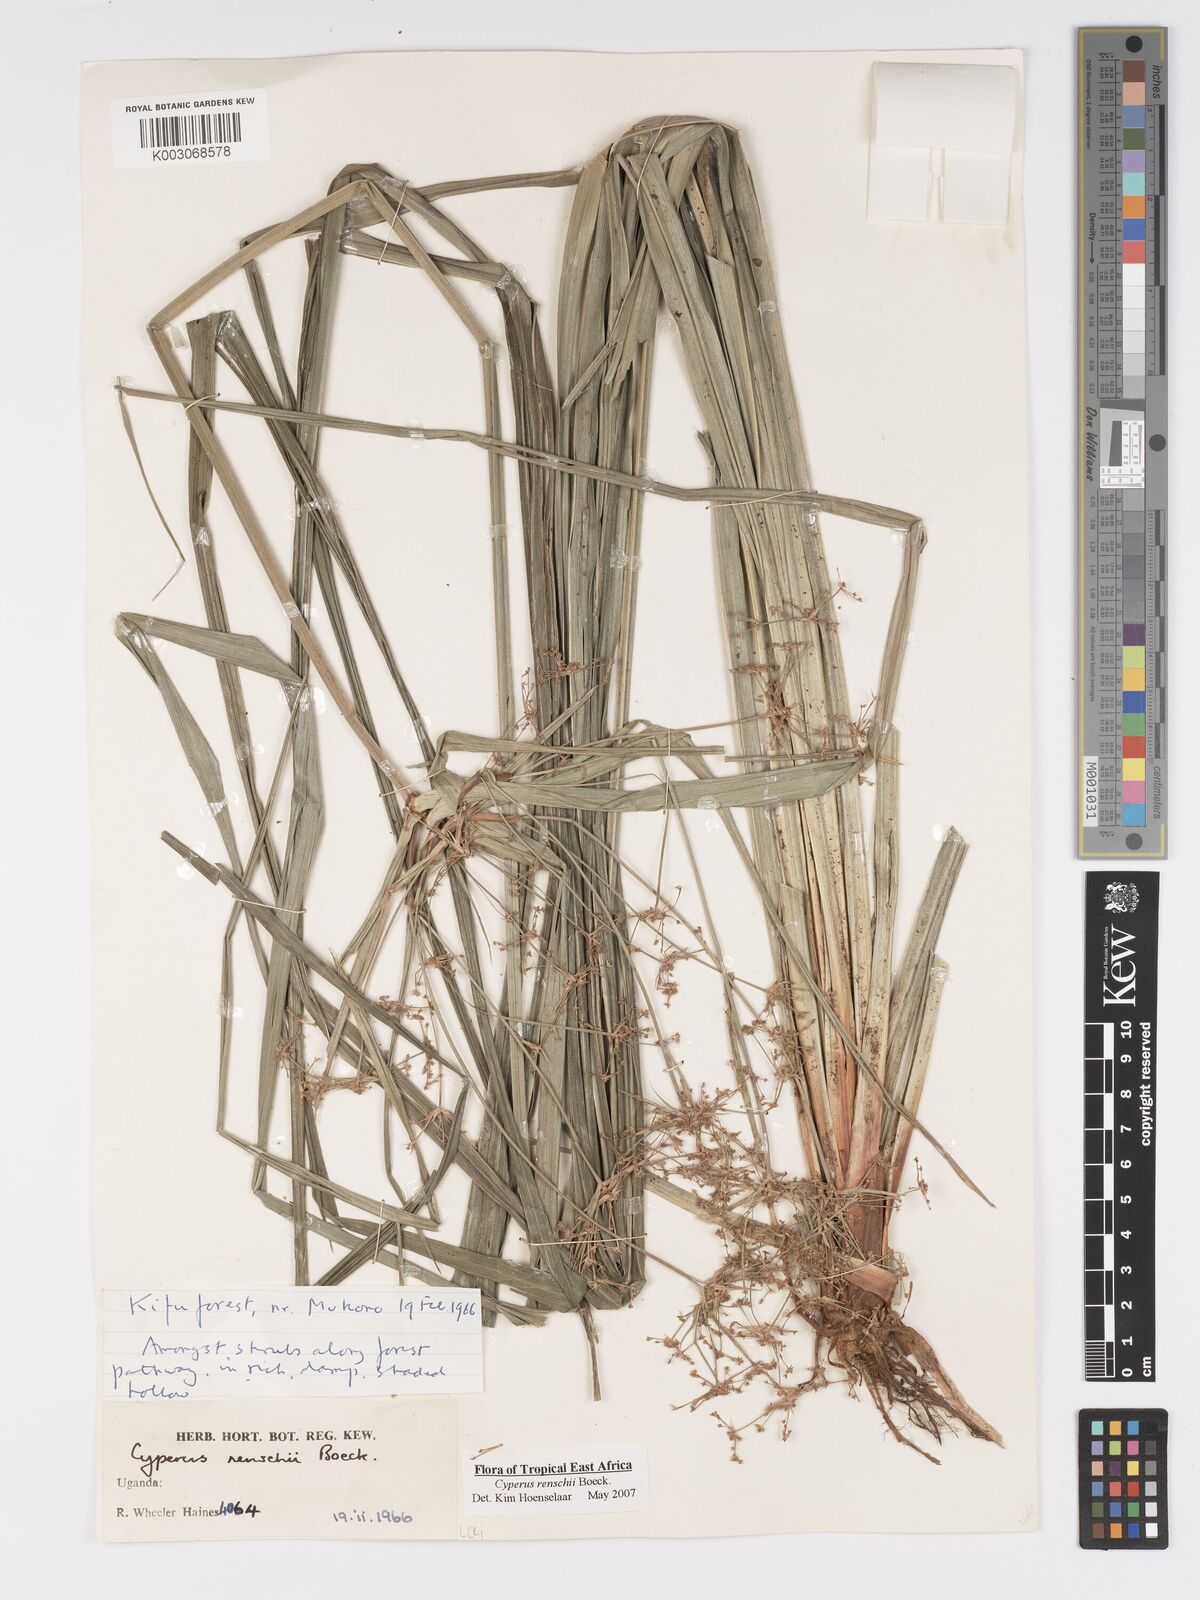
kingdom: Plantae
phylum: Tracheophyta
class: Liliopsida
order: Poales
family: Cyperaceae
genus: Cyperus
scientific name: Cyperus renschii
